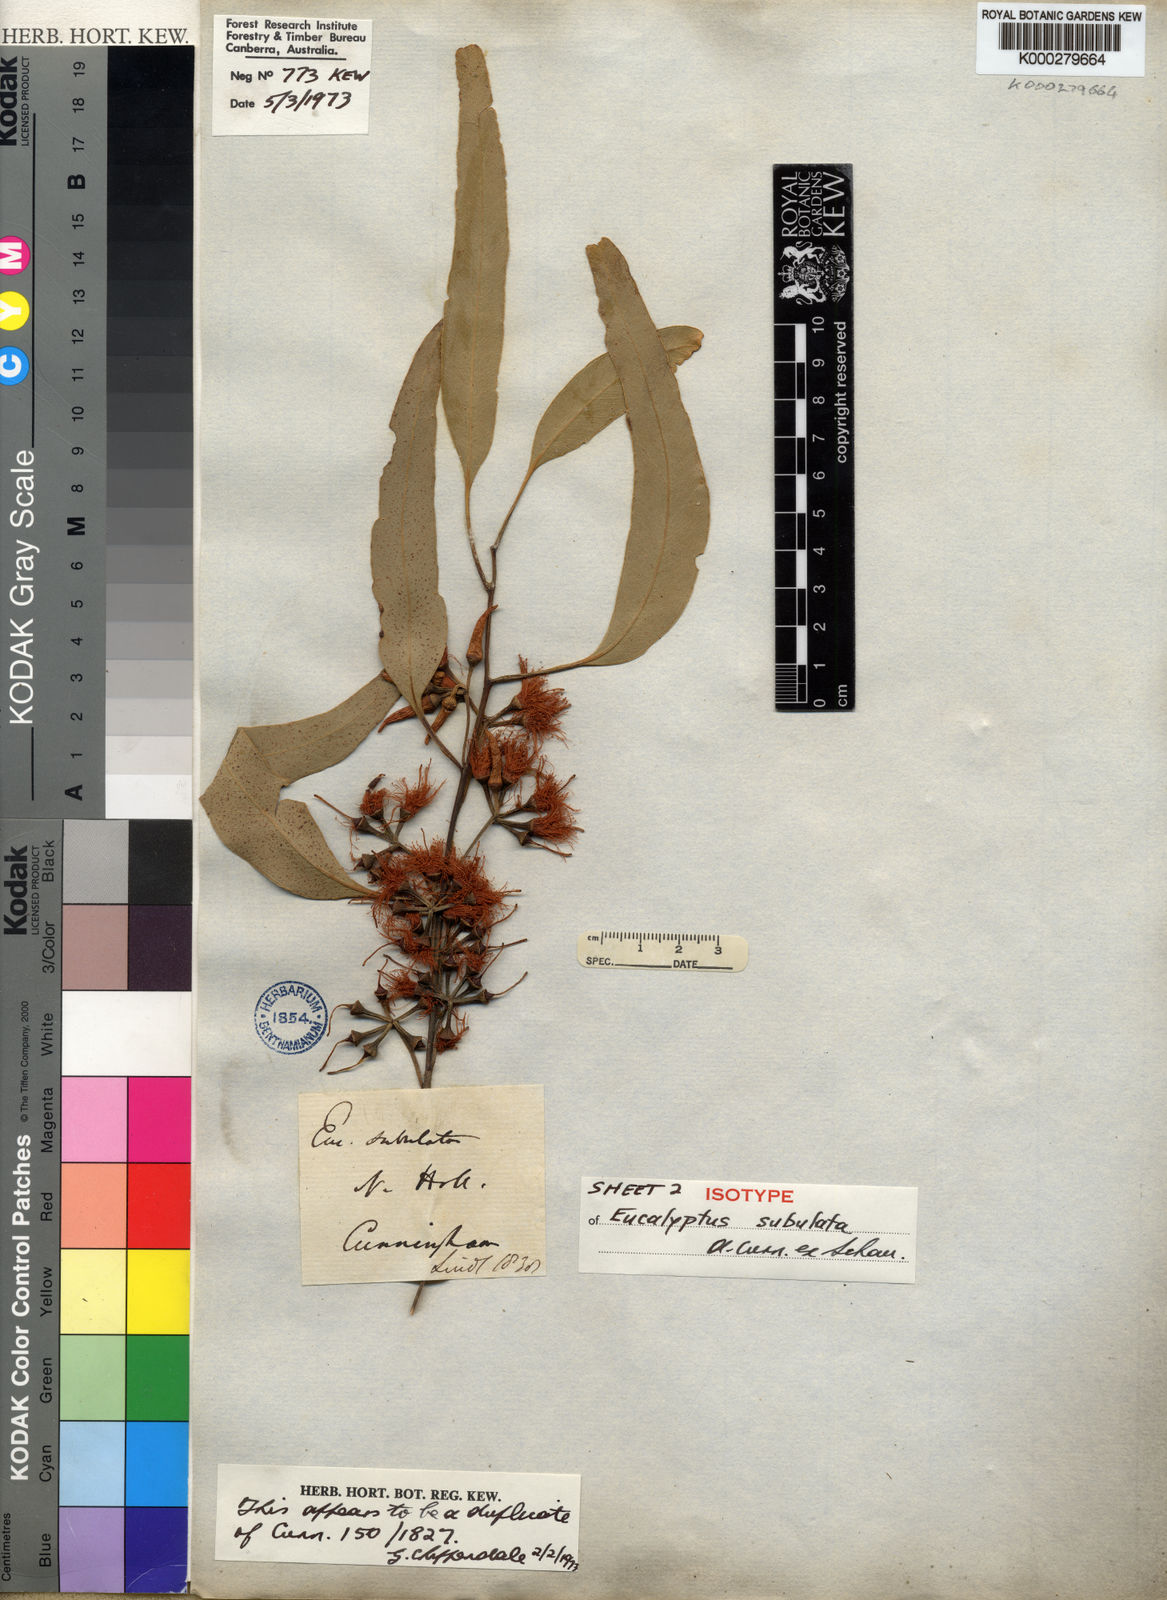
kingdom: Plantae
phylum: Tracheophyta
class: Magnoliopsida
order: Myrtales
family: Myrtaceae
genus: Eucalyptus
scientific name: Eucalyptus tereticornis
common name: Forest redgum
